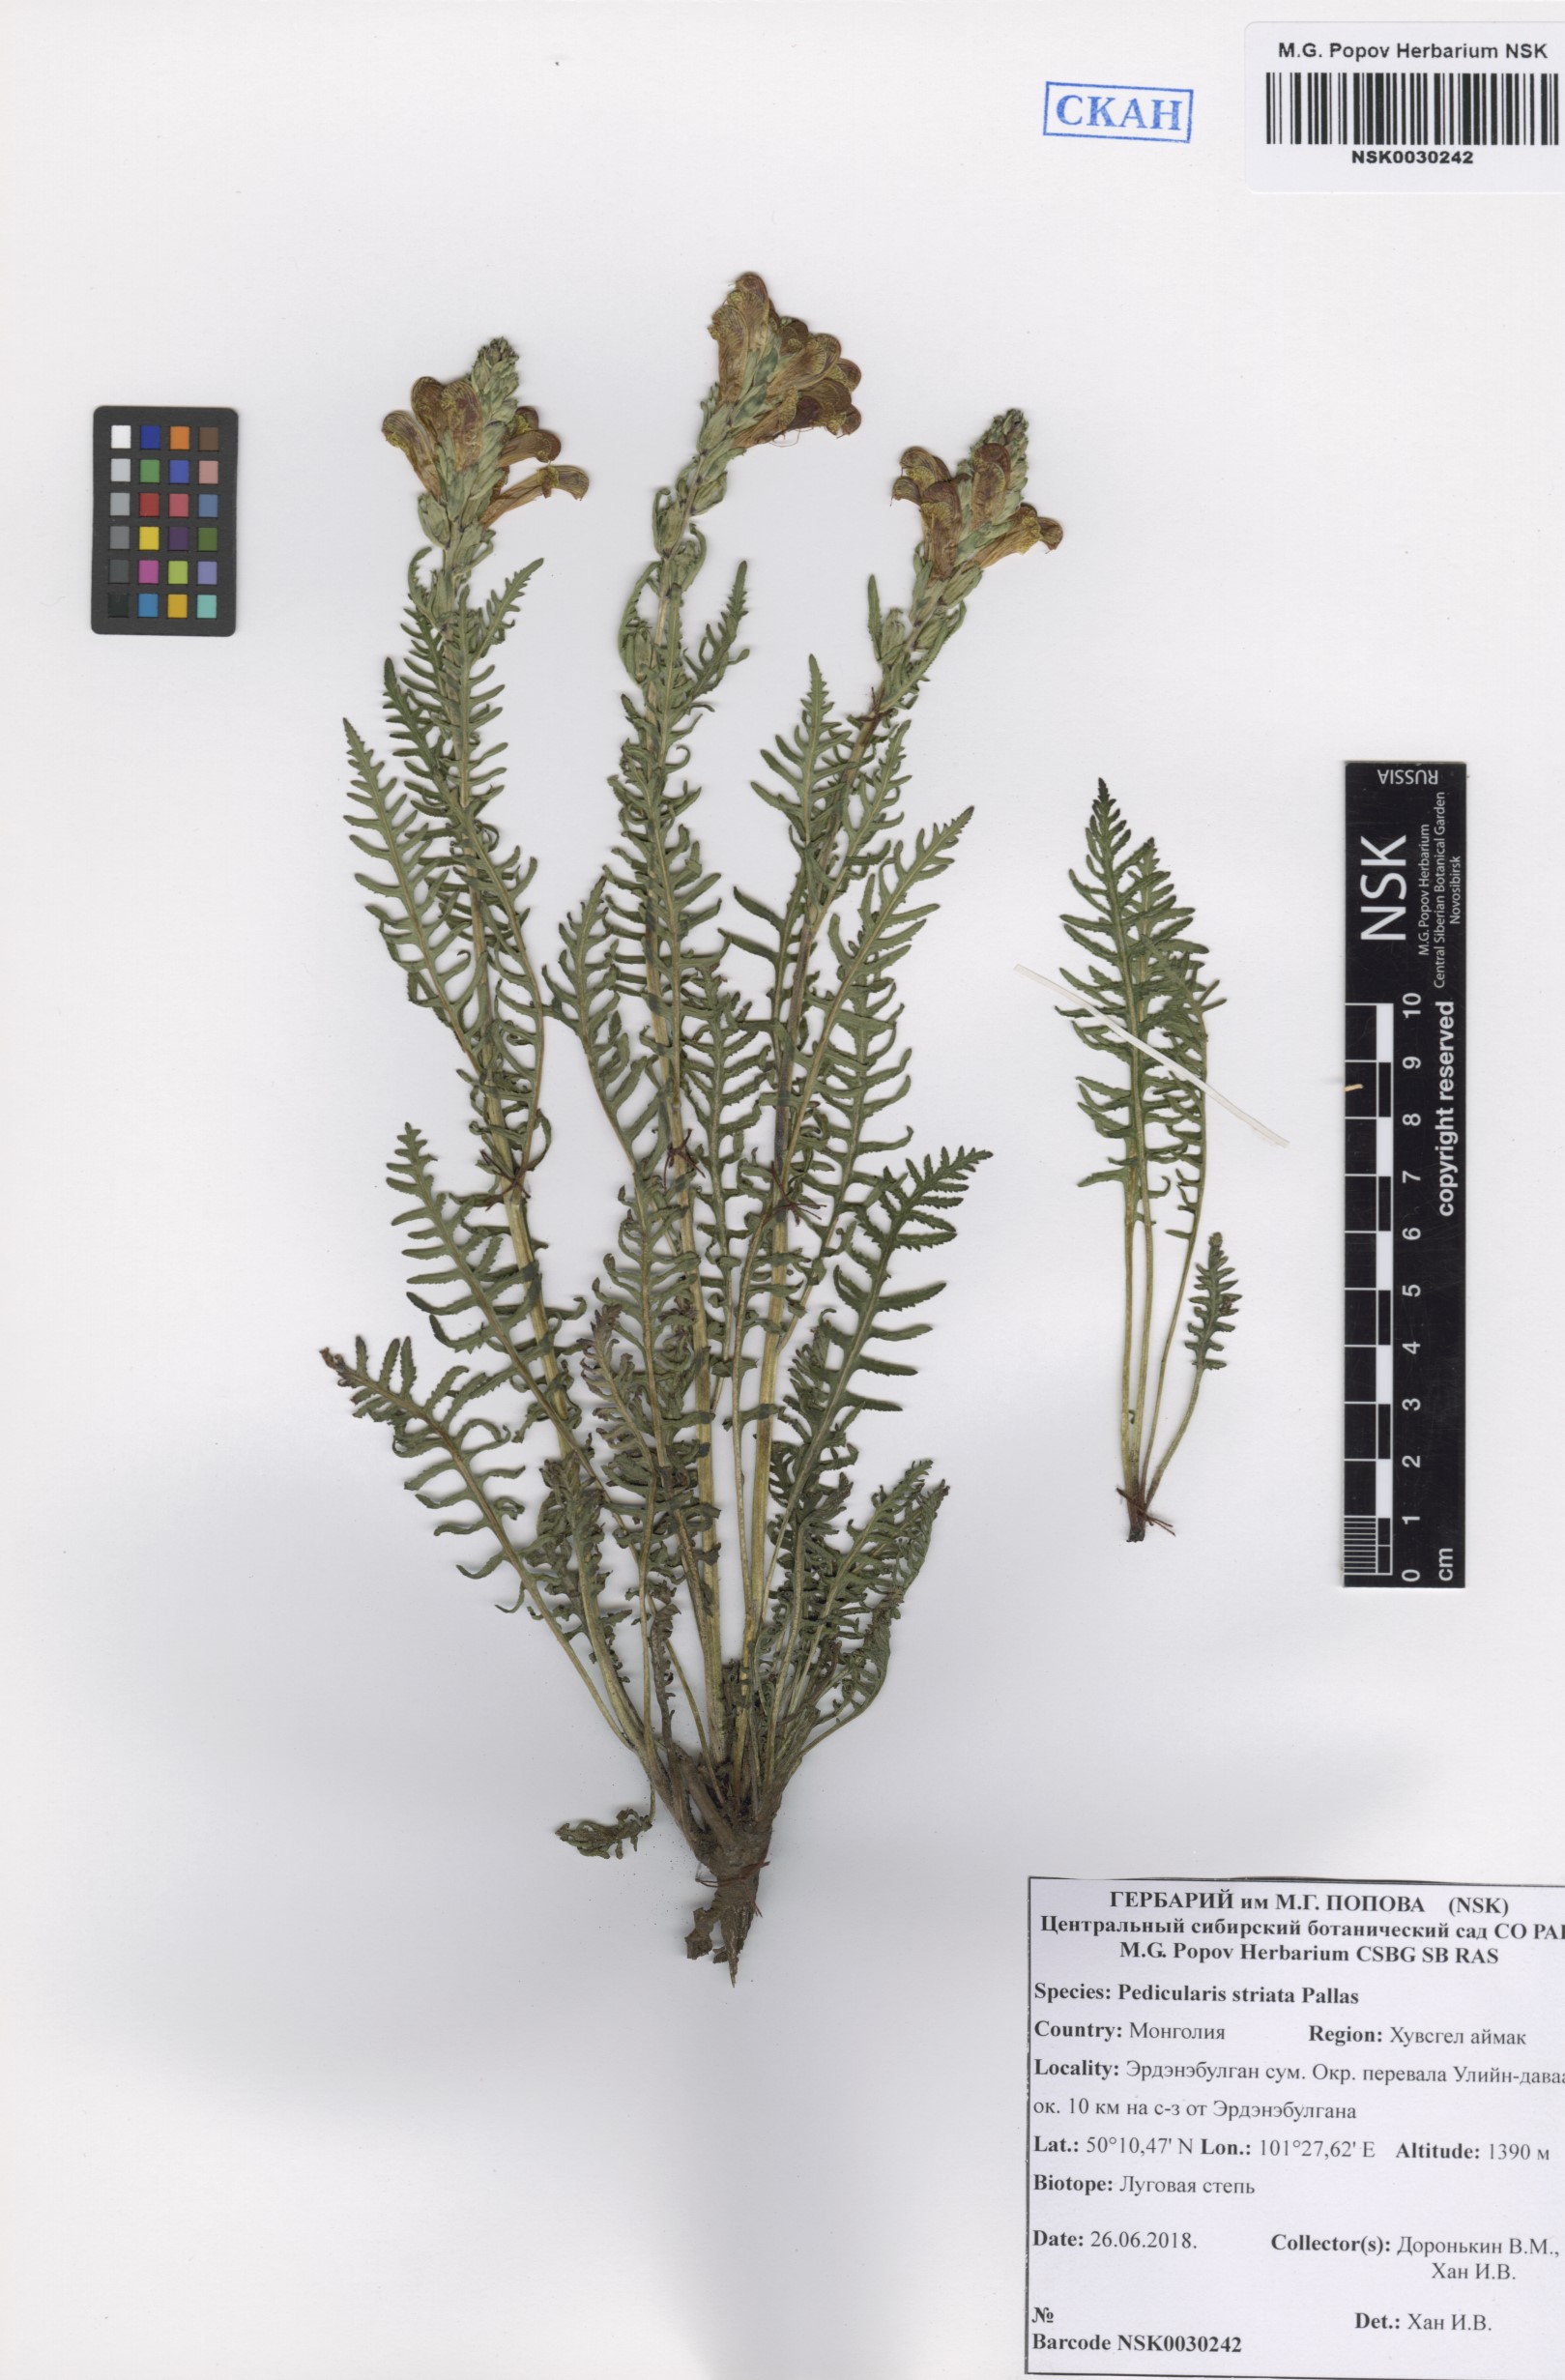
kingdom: Plantae
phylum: Tracheophyta
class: Magnoliopsida
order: Lamiales
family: Orobanchaceae
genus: Pedicularis
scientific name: Pedicularis striata
